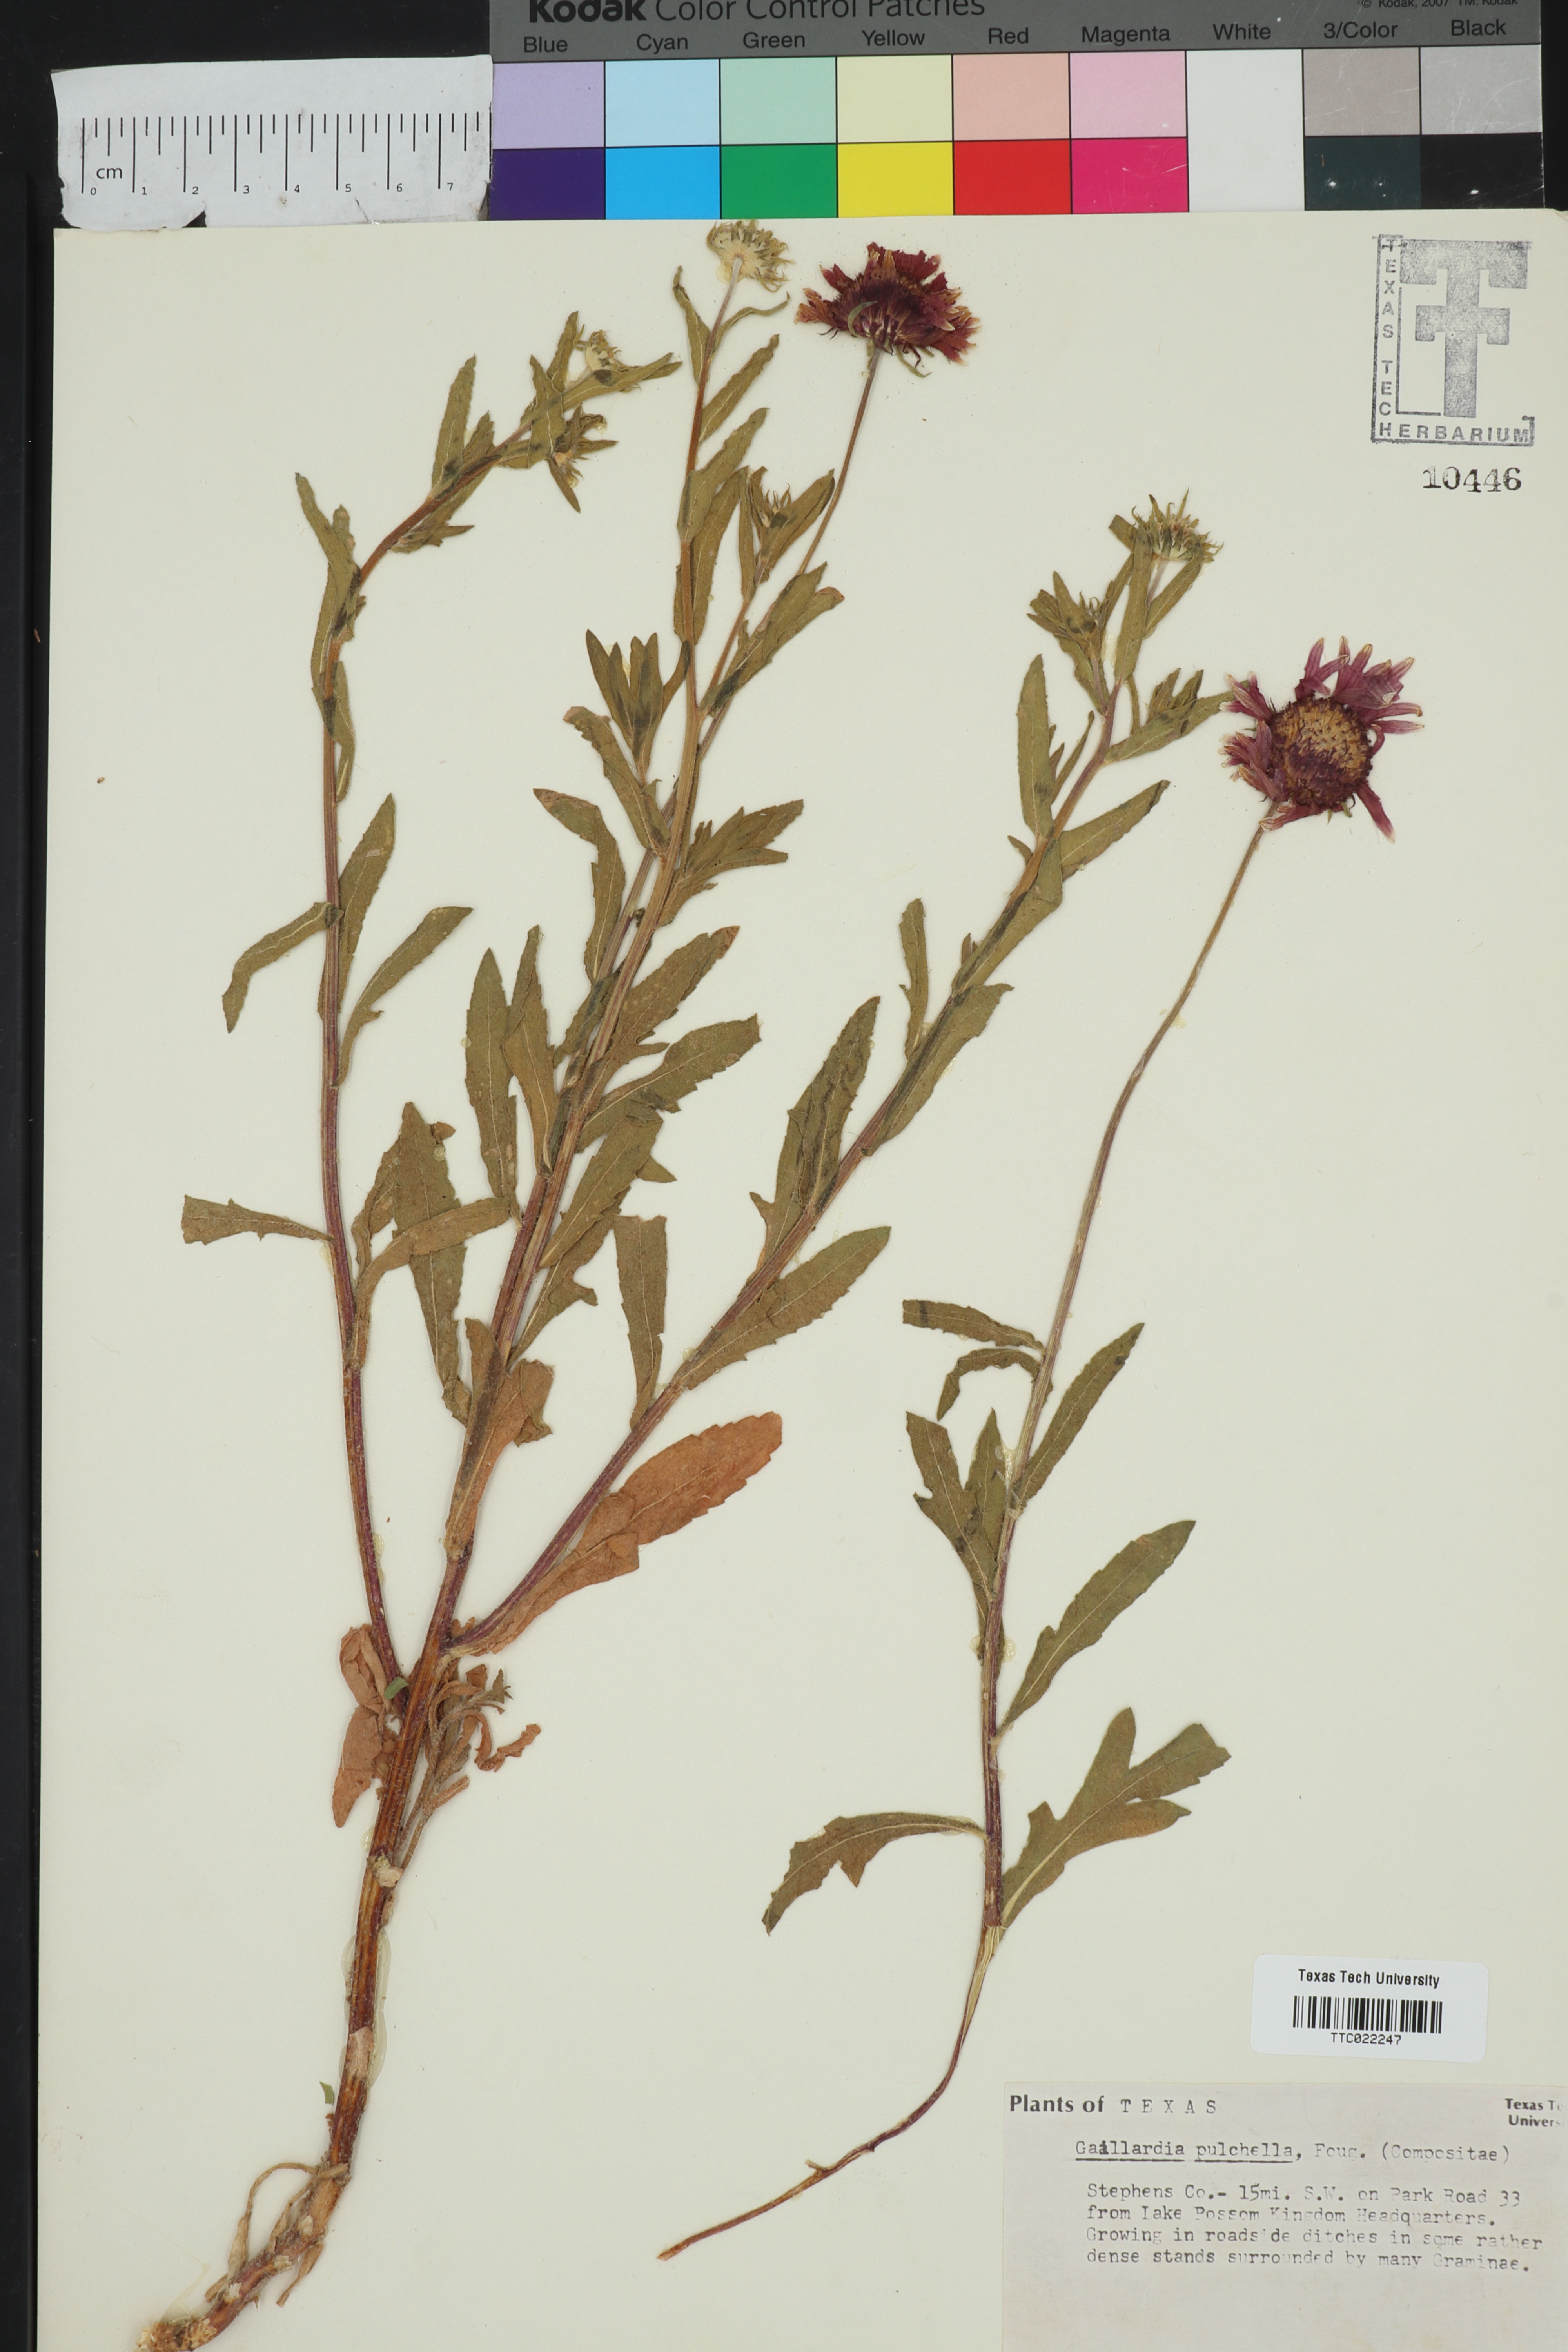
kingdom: Plantae
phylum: Tracheophyta
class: Magnoliopsida
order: Asterales
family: Asteraceae
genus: Gaillardia
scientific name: Gaillardia pulchella
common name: Firewheel
